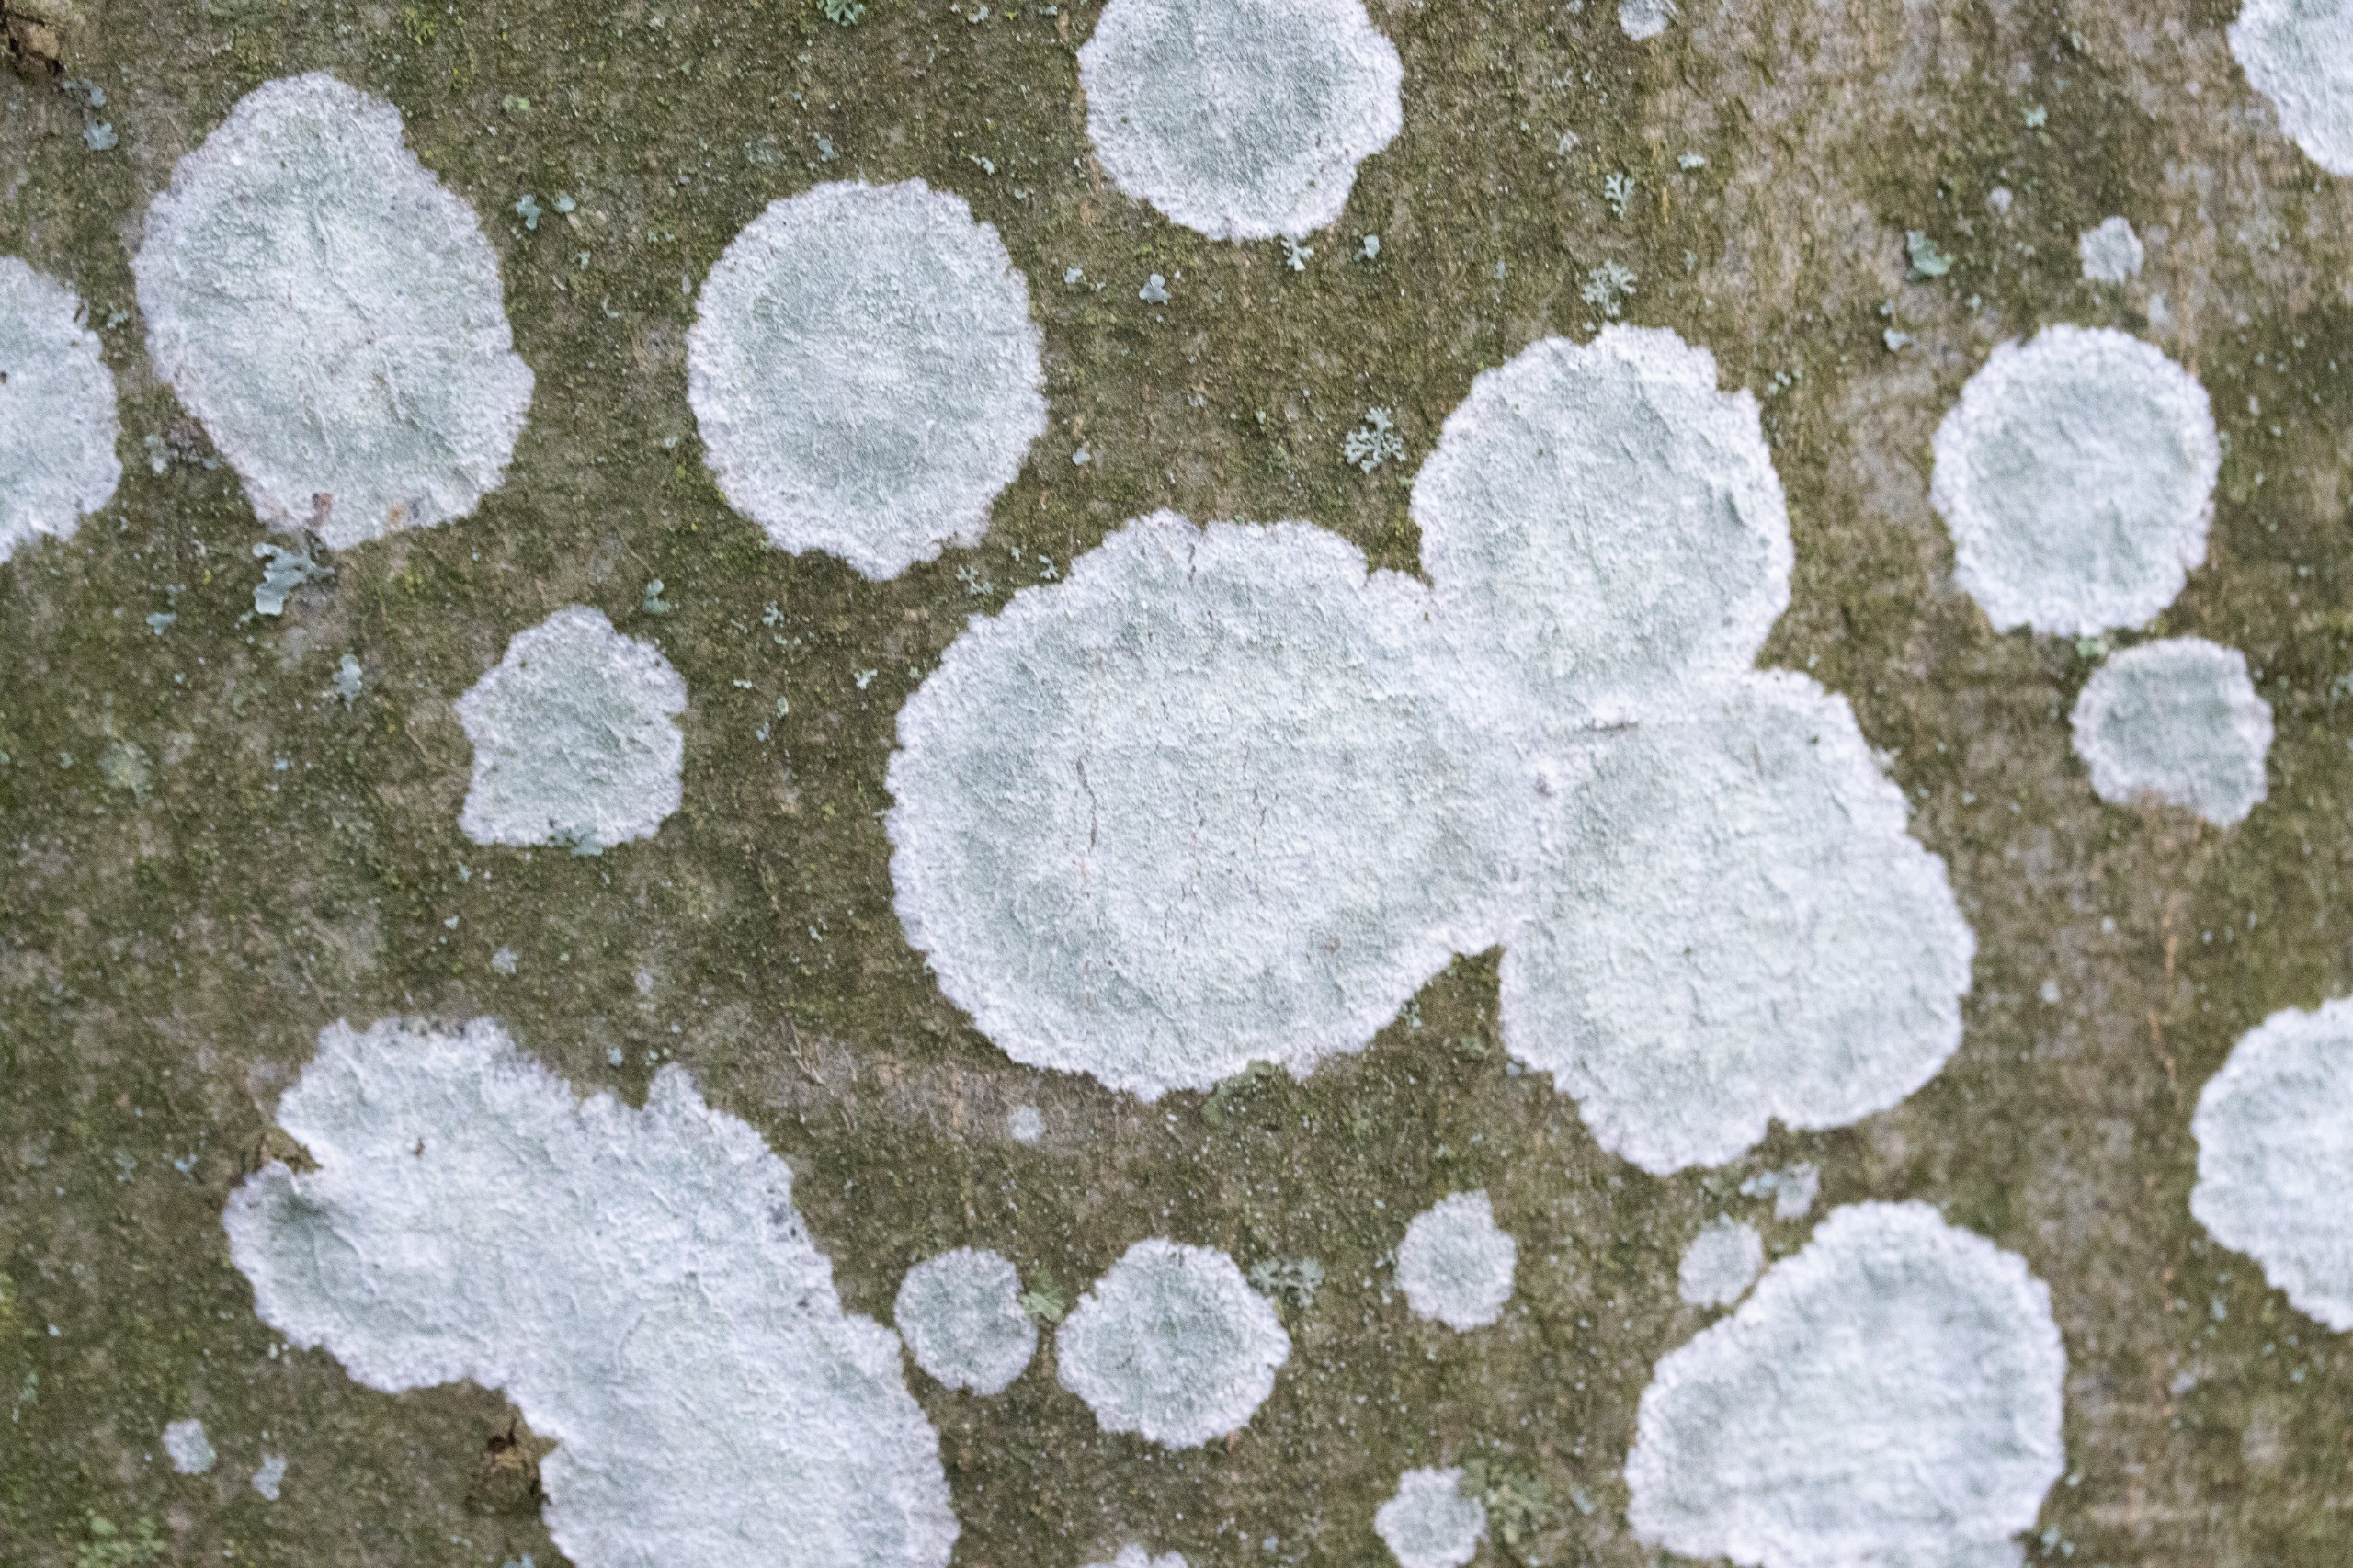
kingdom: Fungi
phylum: Ascomycota
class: Lecanoromycetes
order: Ostropales
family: Phlyctidaceae
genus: Phlyctis
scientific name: Phlyctis argena
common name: Almindelig sølvlav
